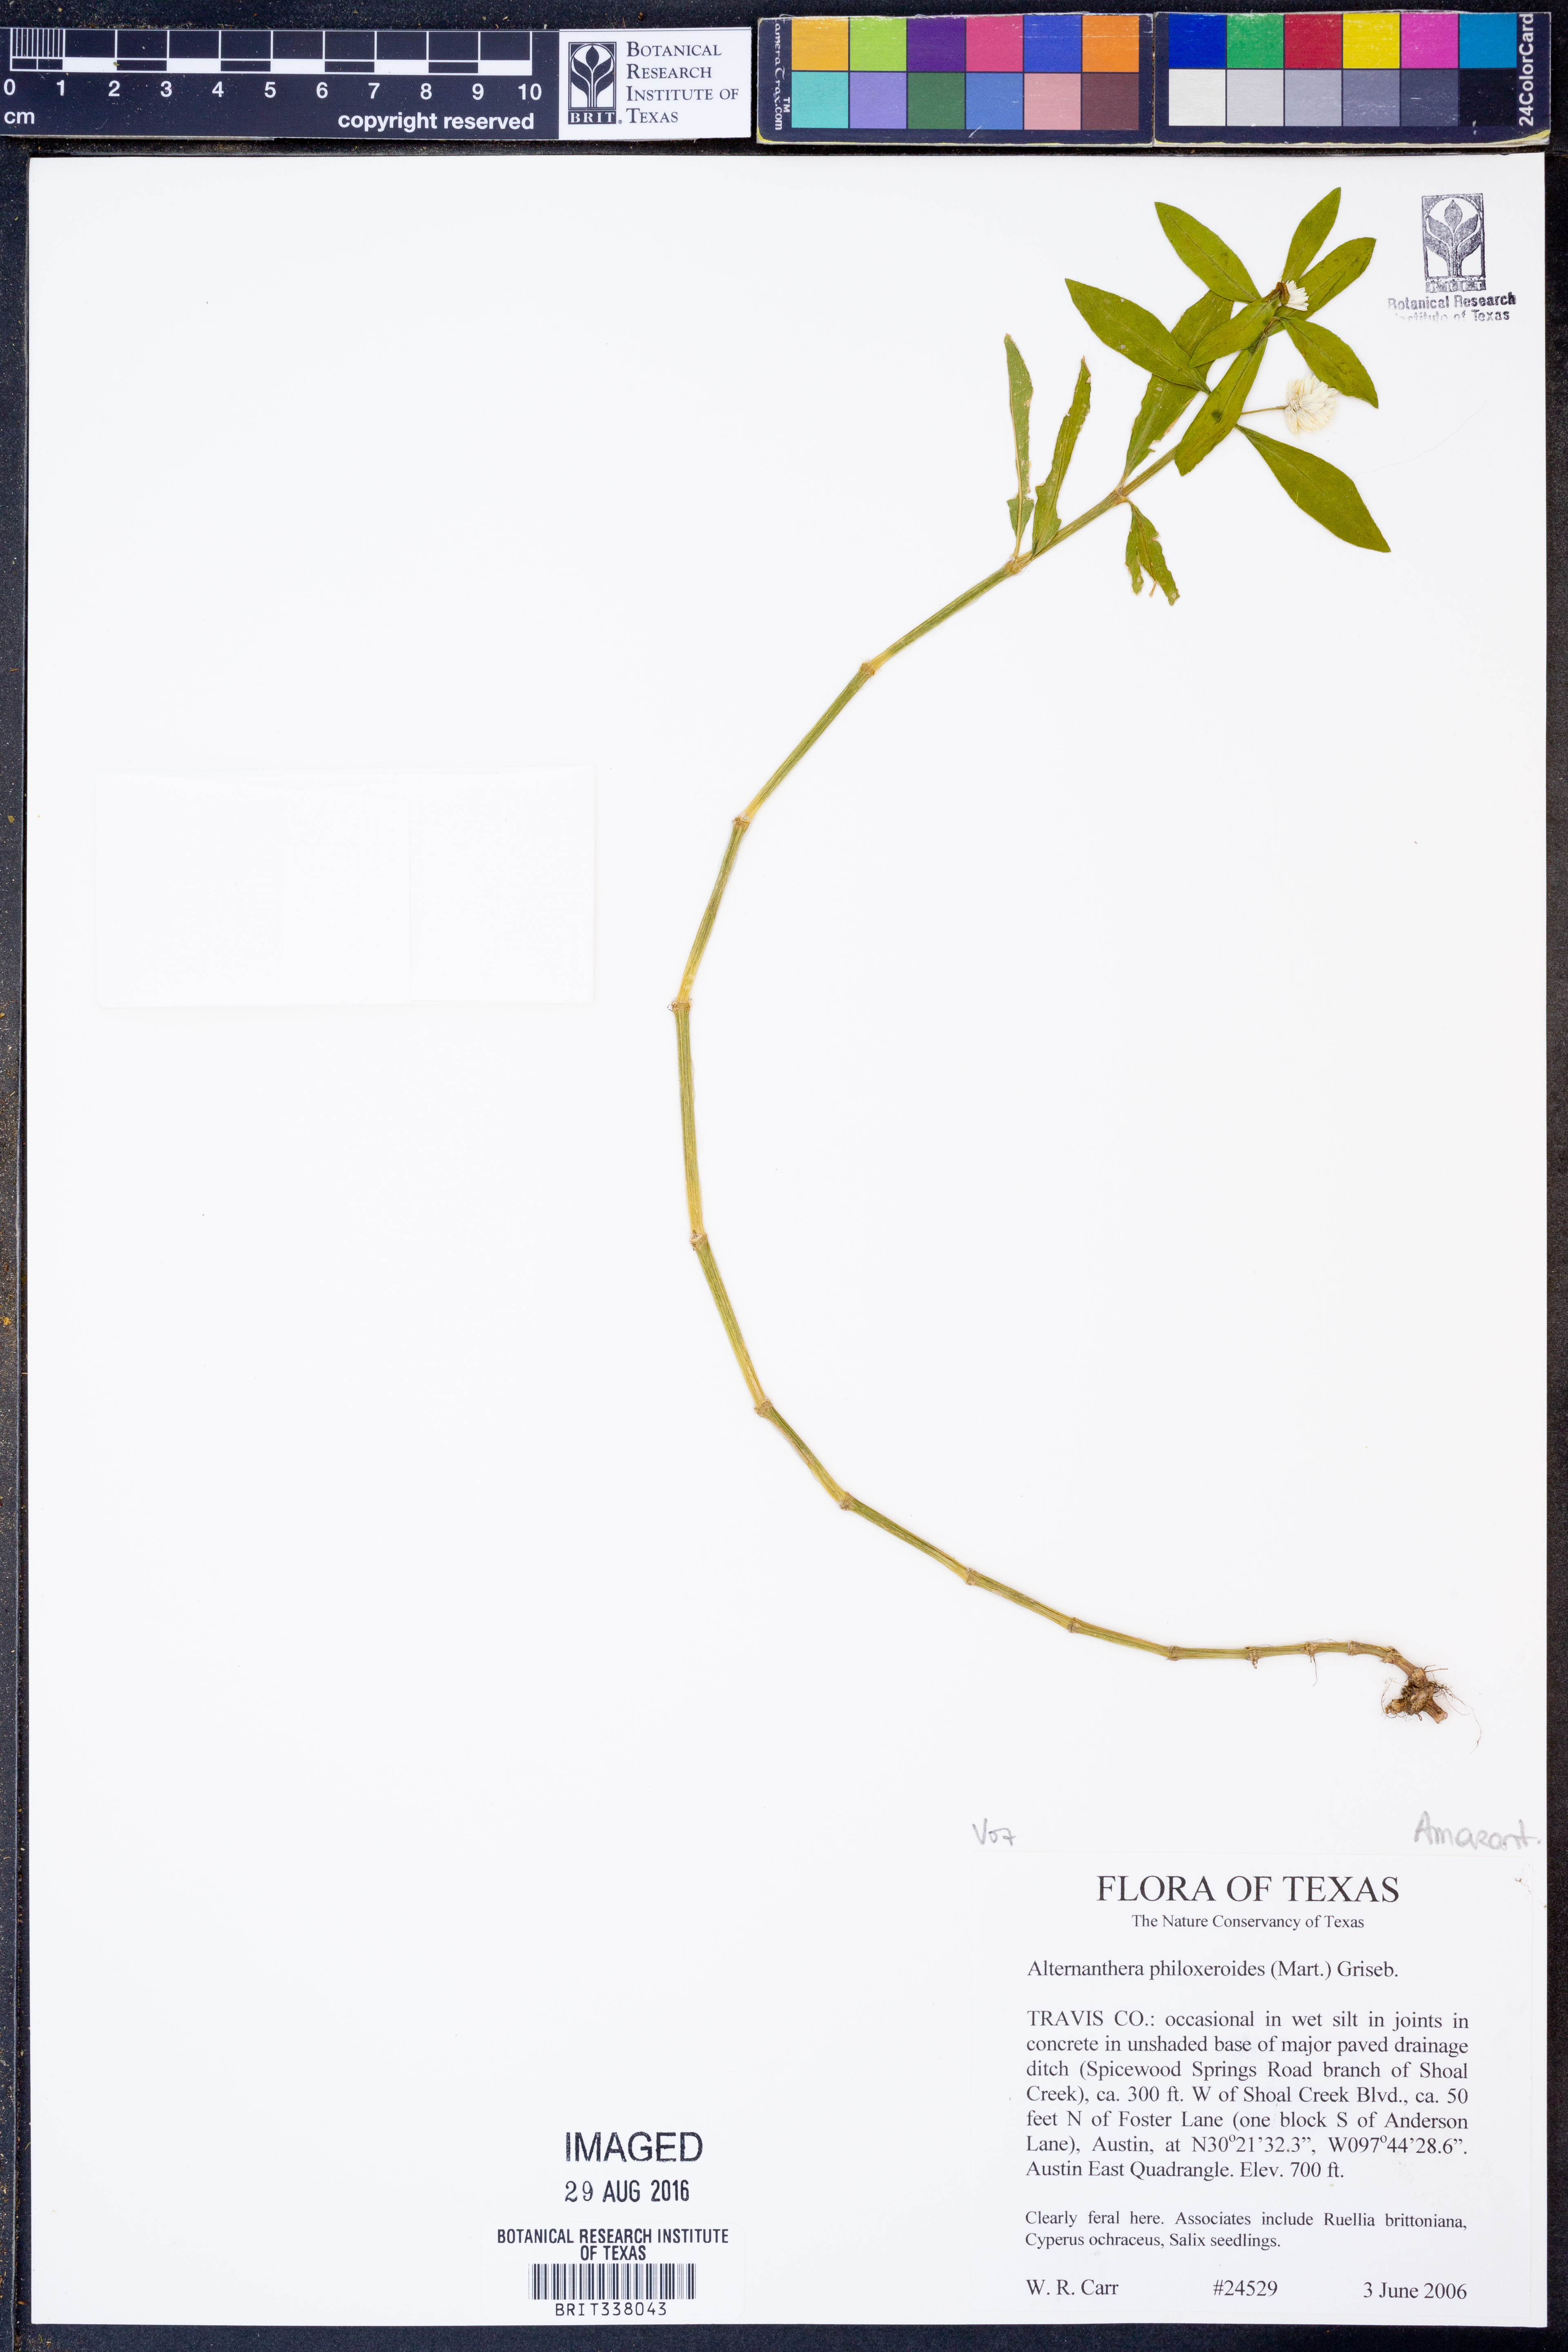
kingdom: Plantae
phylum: Tracheophyta
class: Magnoliopsida
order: Caryophyllales
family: Amaranthaceae
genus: Alternanthera
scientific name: Alternanthera philoxeroides
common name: Alligatorweed
